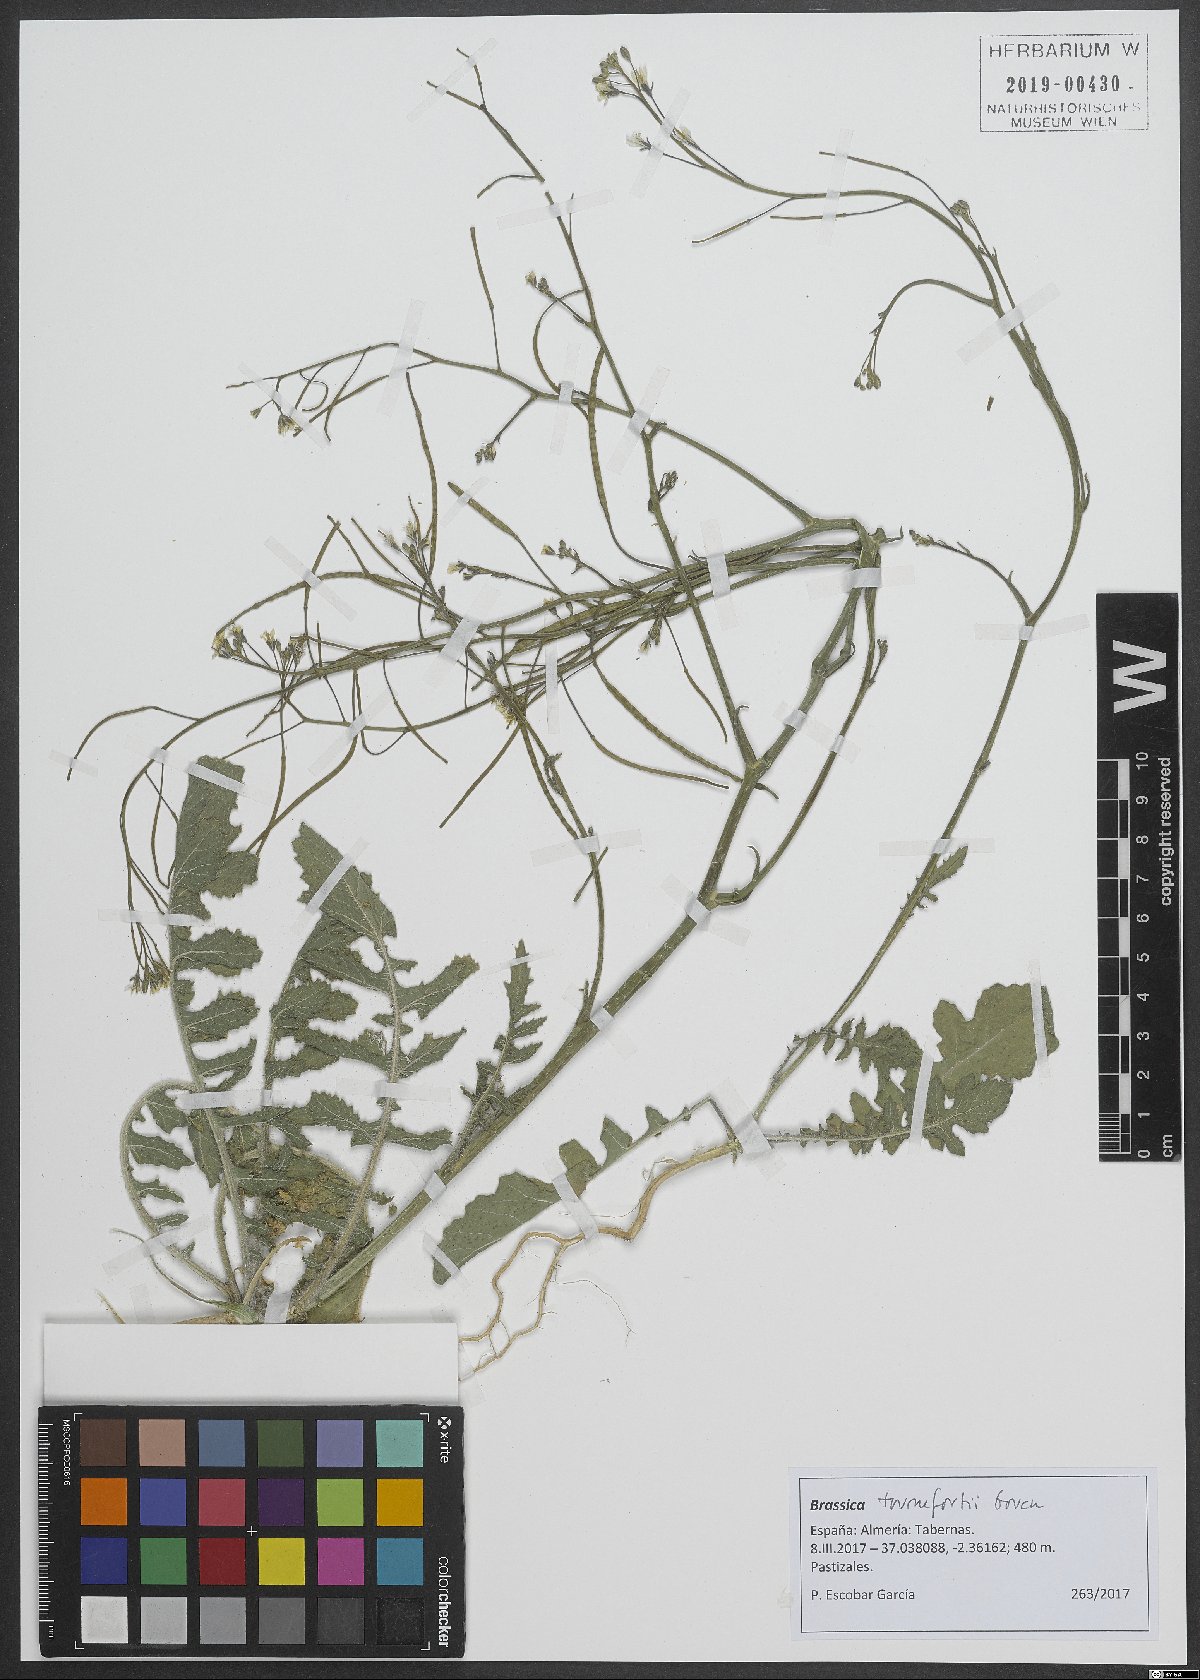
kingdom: Plantae
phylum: Tracheophyta
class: Magnoliopsida
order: Brassicales
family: Brassicaceae
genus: Brassica
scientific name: Brassica tournefortii
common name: Pale cabbage
